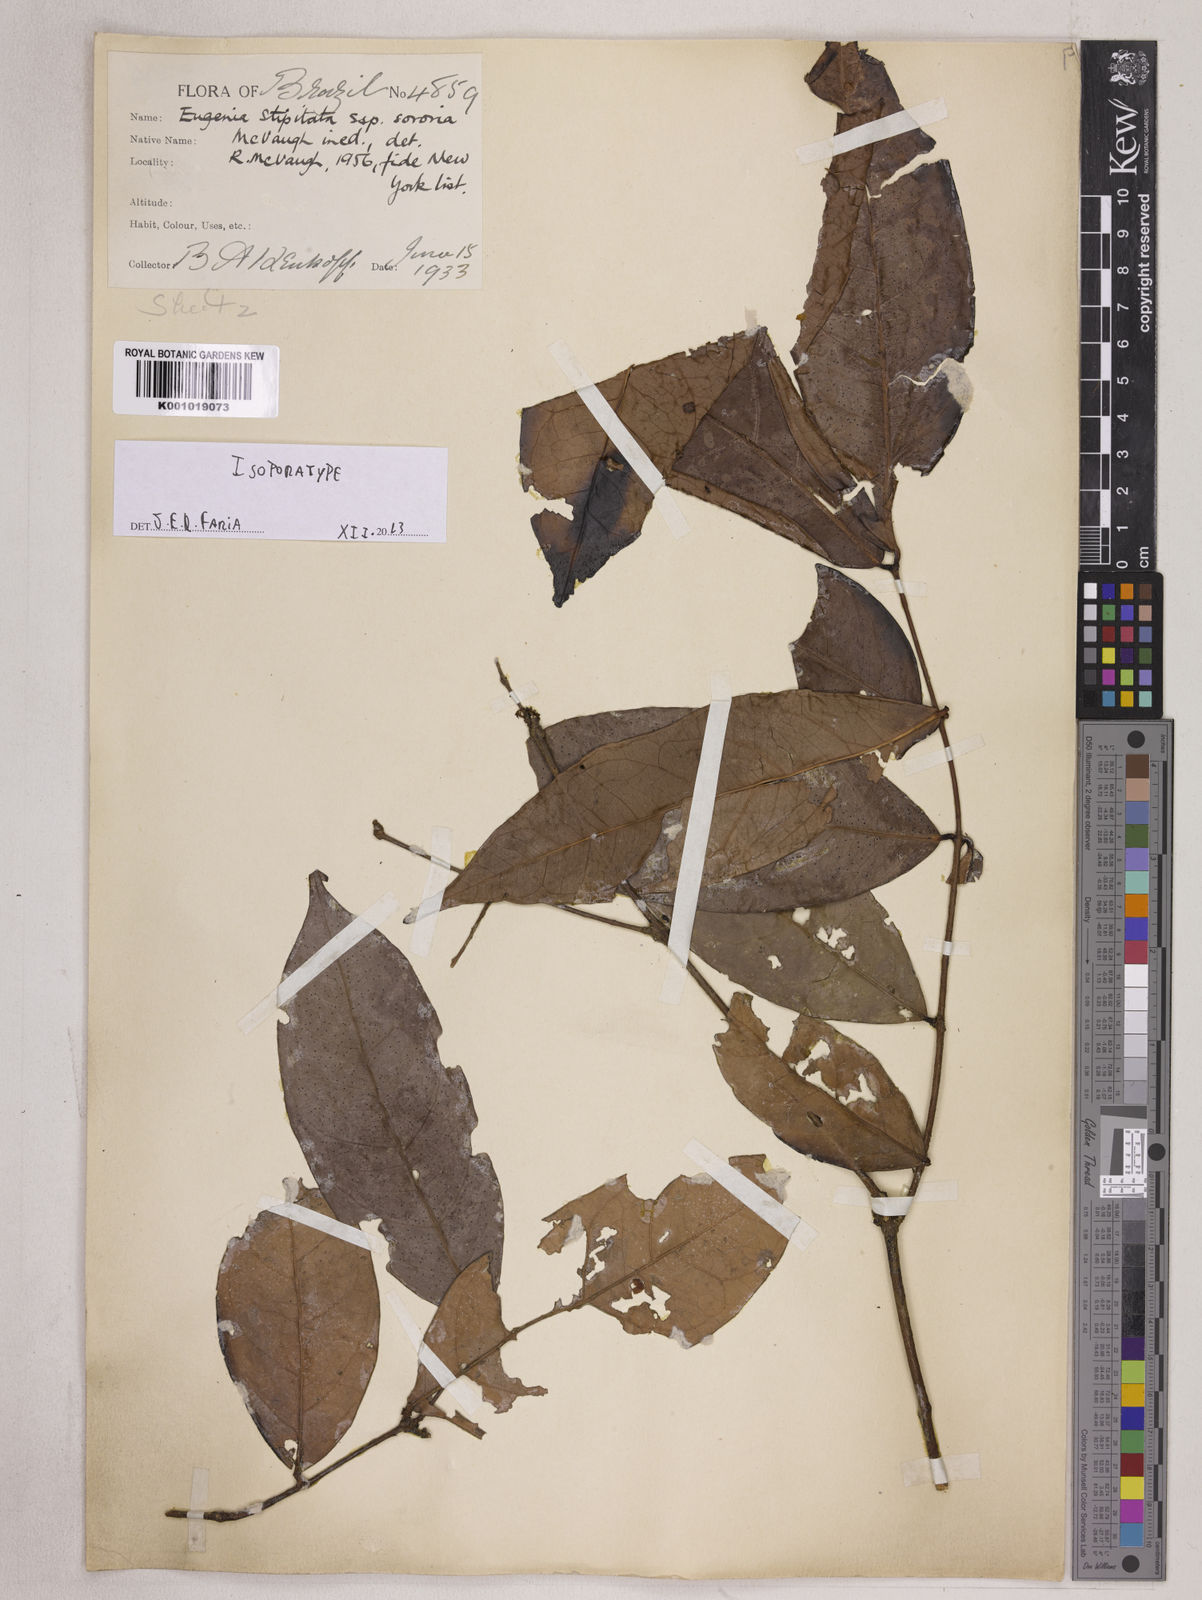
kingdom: Plantae
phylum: Tracheophyta
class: Magnoliopsida
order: Myrtales
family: Myrtaceae
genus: Eugenia
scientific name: Eugenia stipitata
